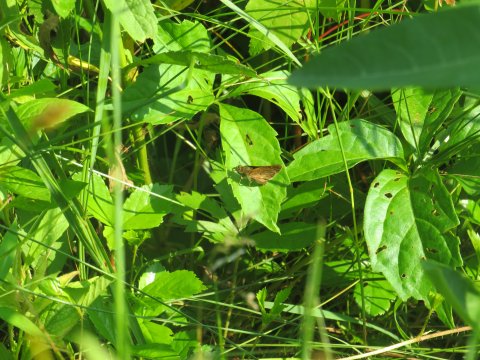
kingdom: Animalia
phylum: Arthropoda
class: Insecta
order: Lepidoptera
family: Hesperiidae
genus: Euphyes
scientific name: Euphyes vestris
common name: Dun Skipper
